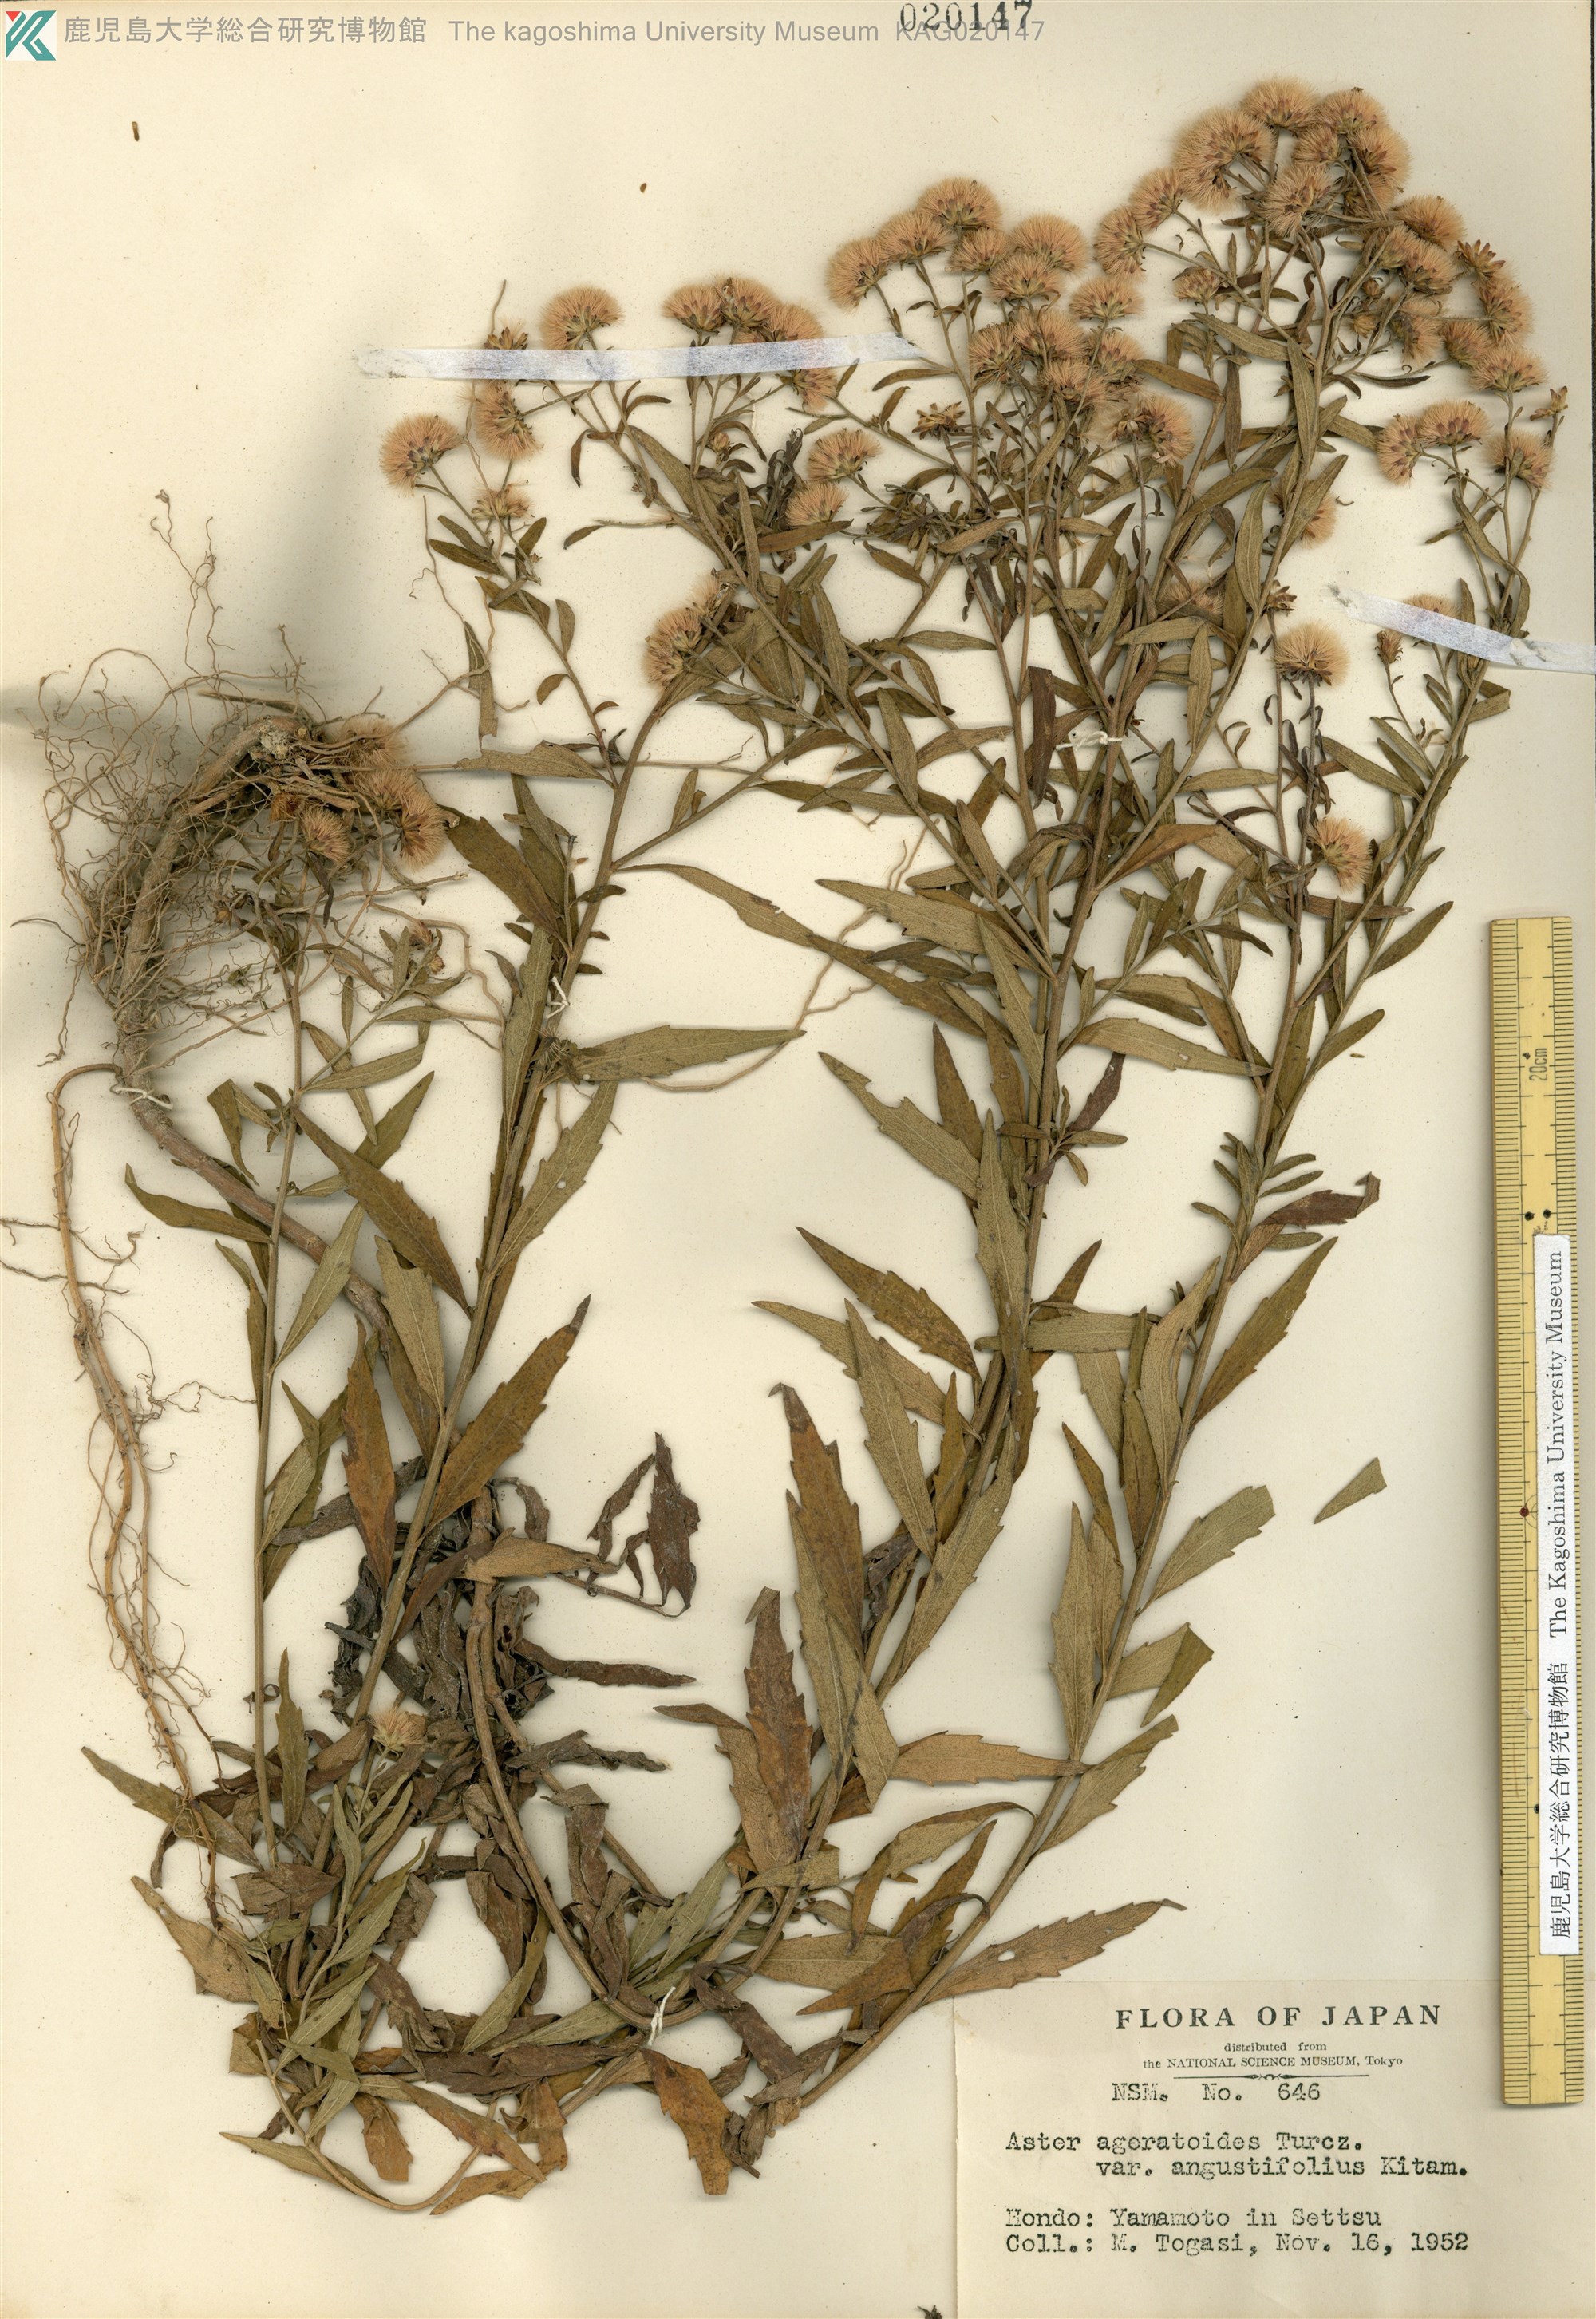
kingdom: Plantae
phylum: Tracheophyta
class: Magnoliopsida
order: Asterales
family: Asteraceae
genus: Aster
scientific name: Aster microcephalus
